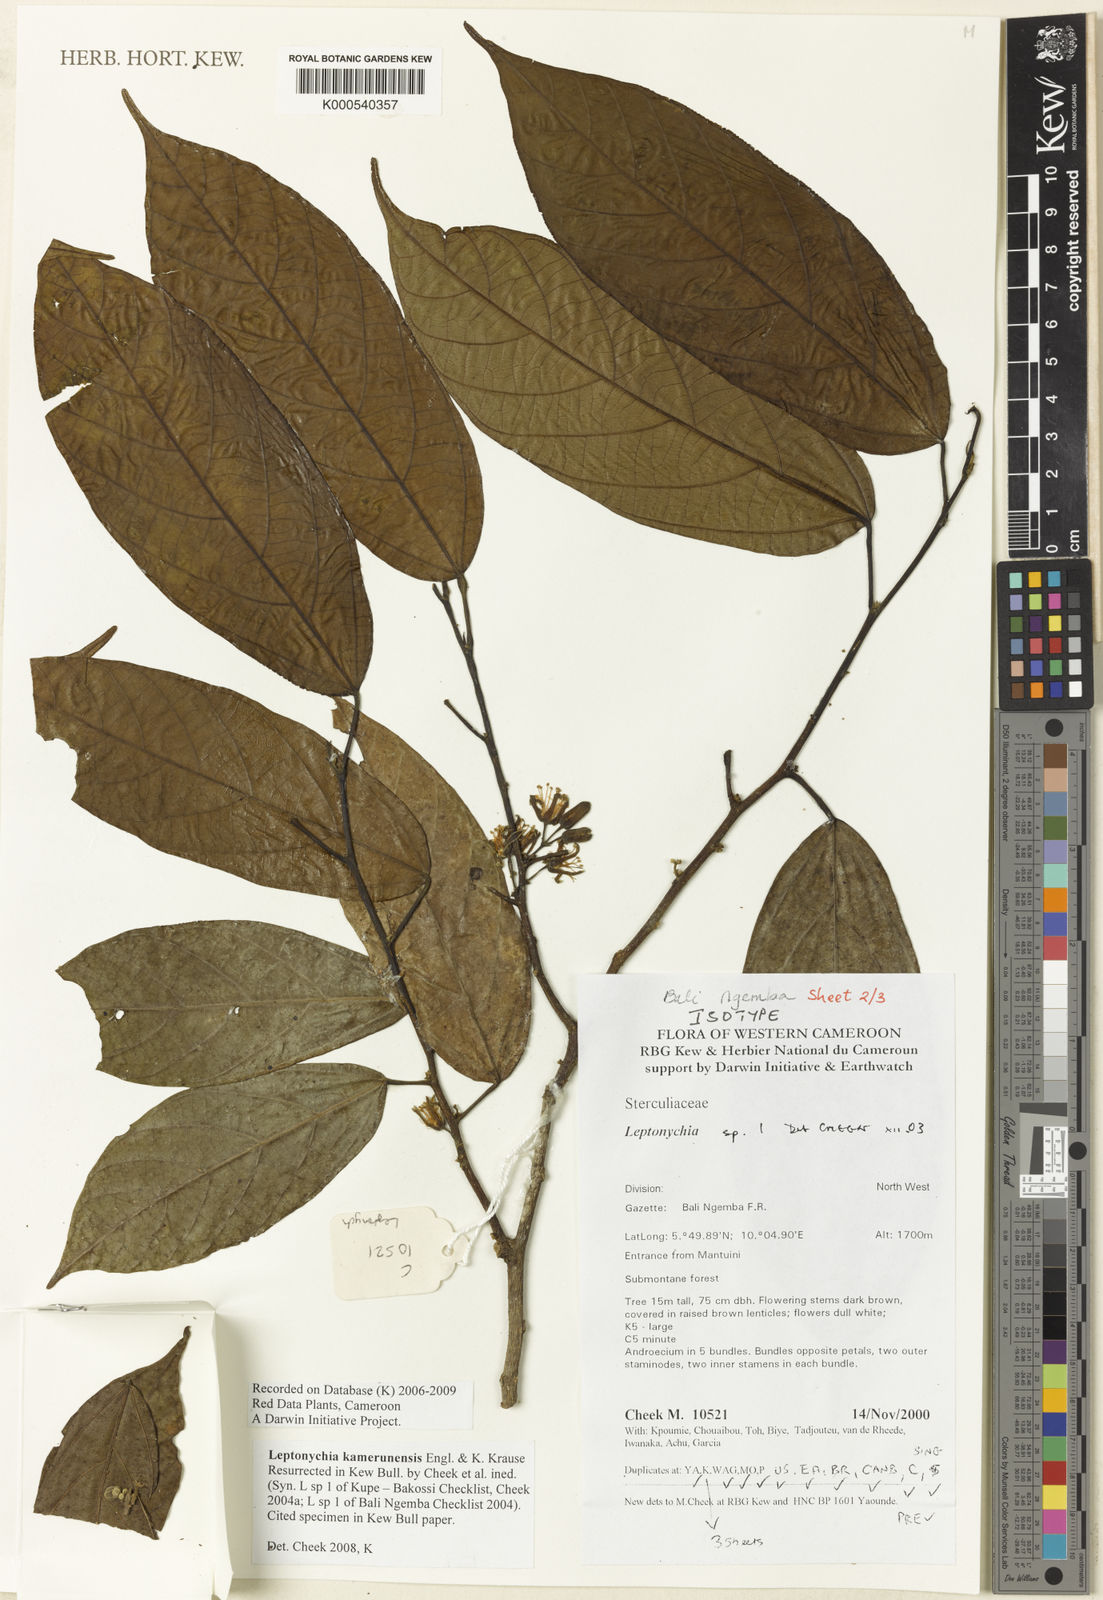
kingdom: Plantae
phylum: Tracheophyta
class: Magnoliopsida
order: Malvales
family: Malvaceae
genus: Leptonychia
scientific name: Leptonychia kamerunensis
